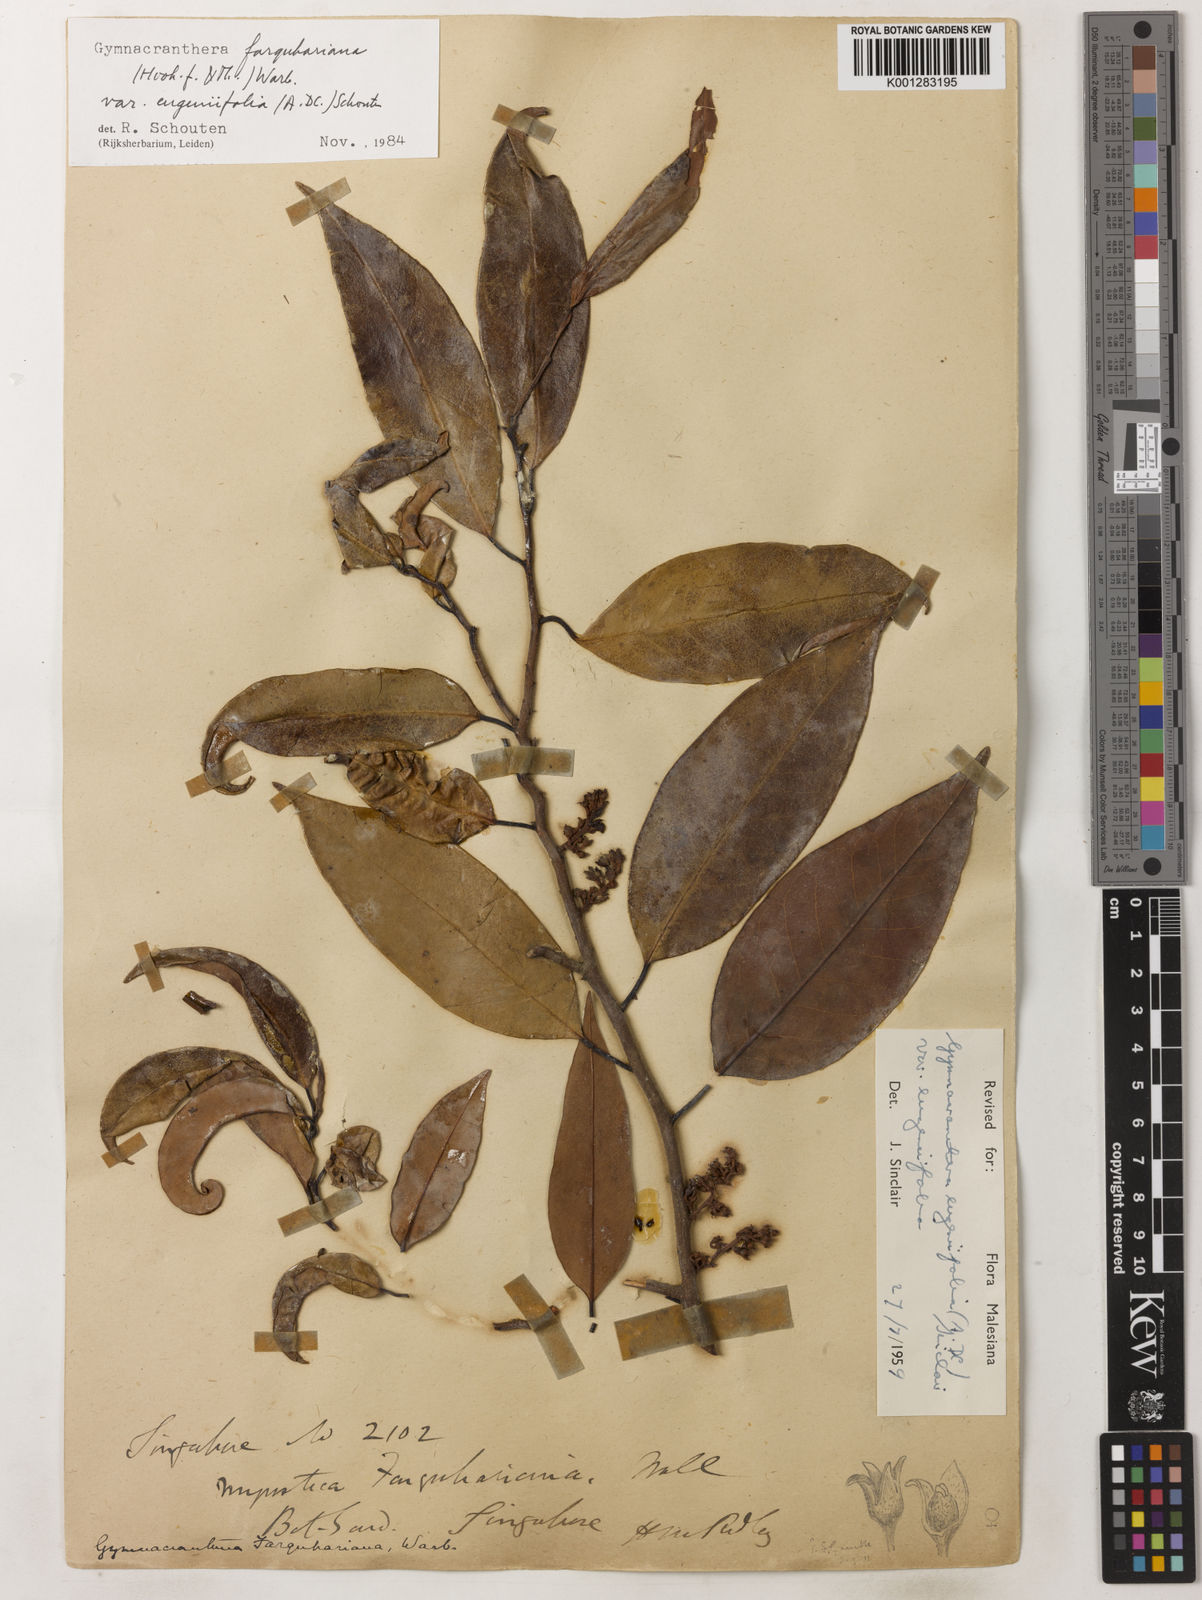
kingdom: Plantae
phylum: Tracheophyta
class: Magnoliopsida
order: Magnoliales
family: Myristicaceae
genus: Gymnacranthera
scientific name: Gymnacranthera farquhariana
